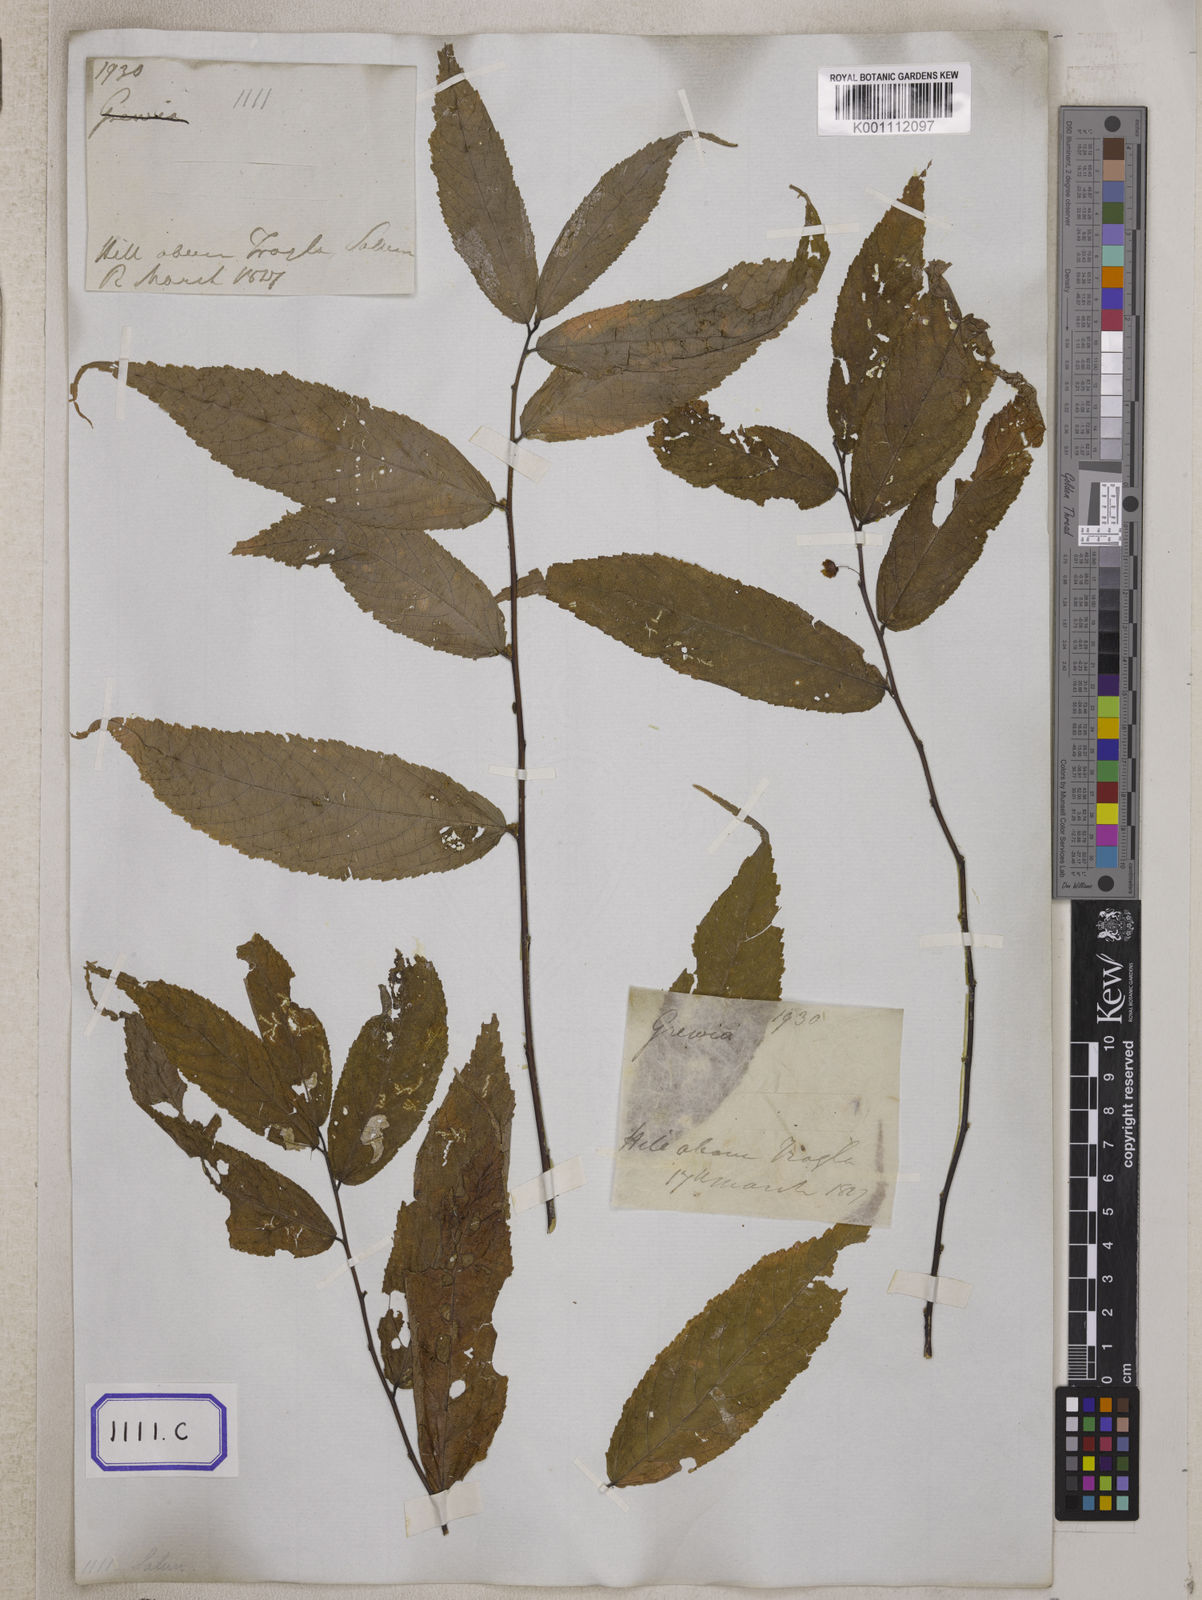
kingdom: Plantae
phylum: Tracheophyta
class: Magnoliopsida
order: Malvales
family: Malvaceae
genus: Grewia
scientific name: Grewia
